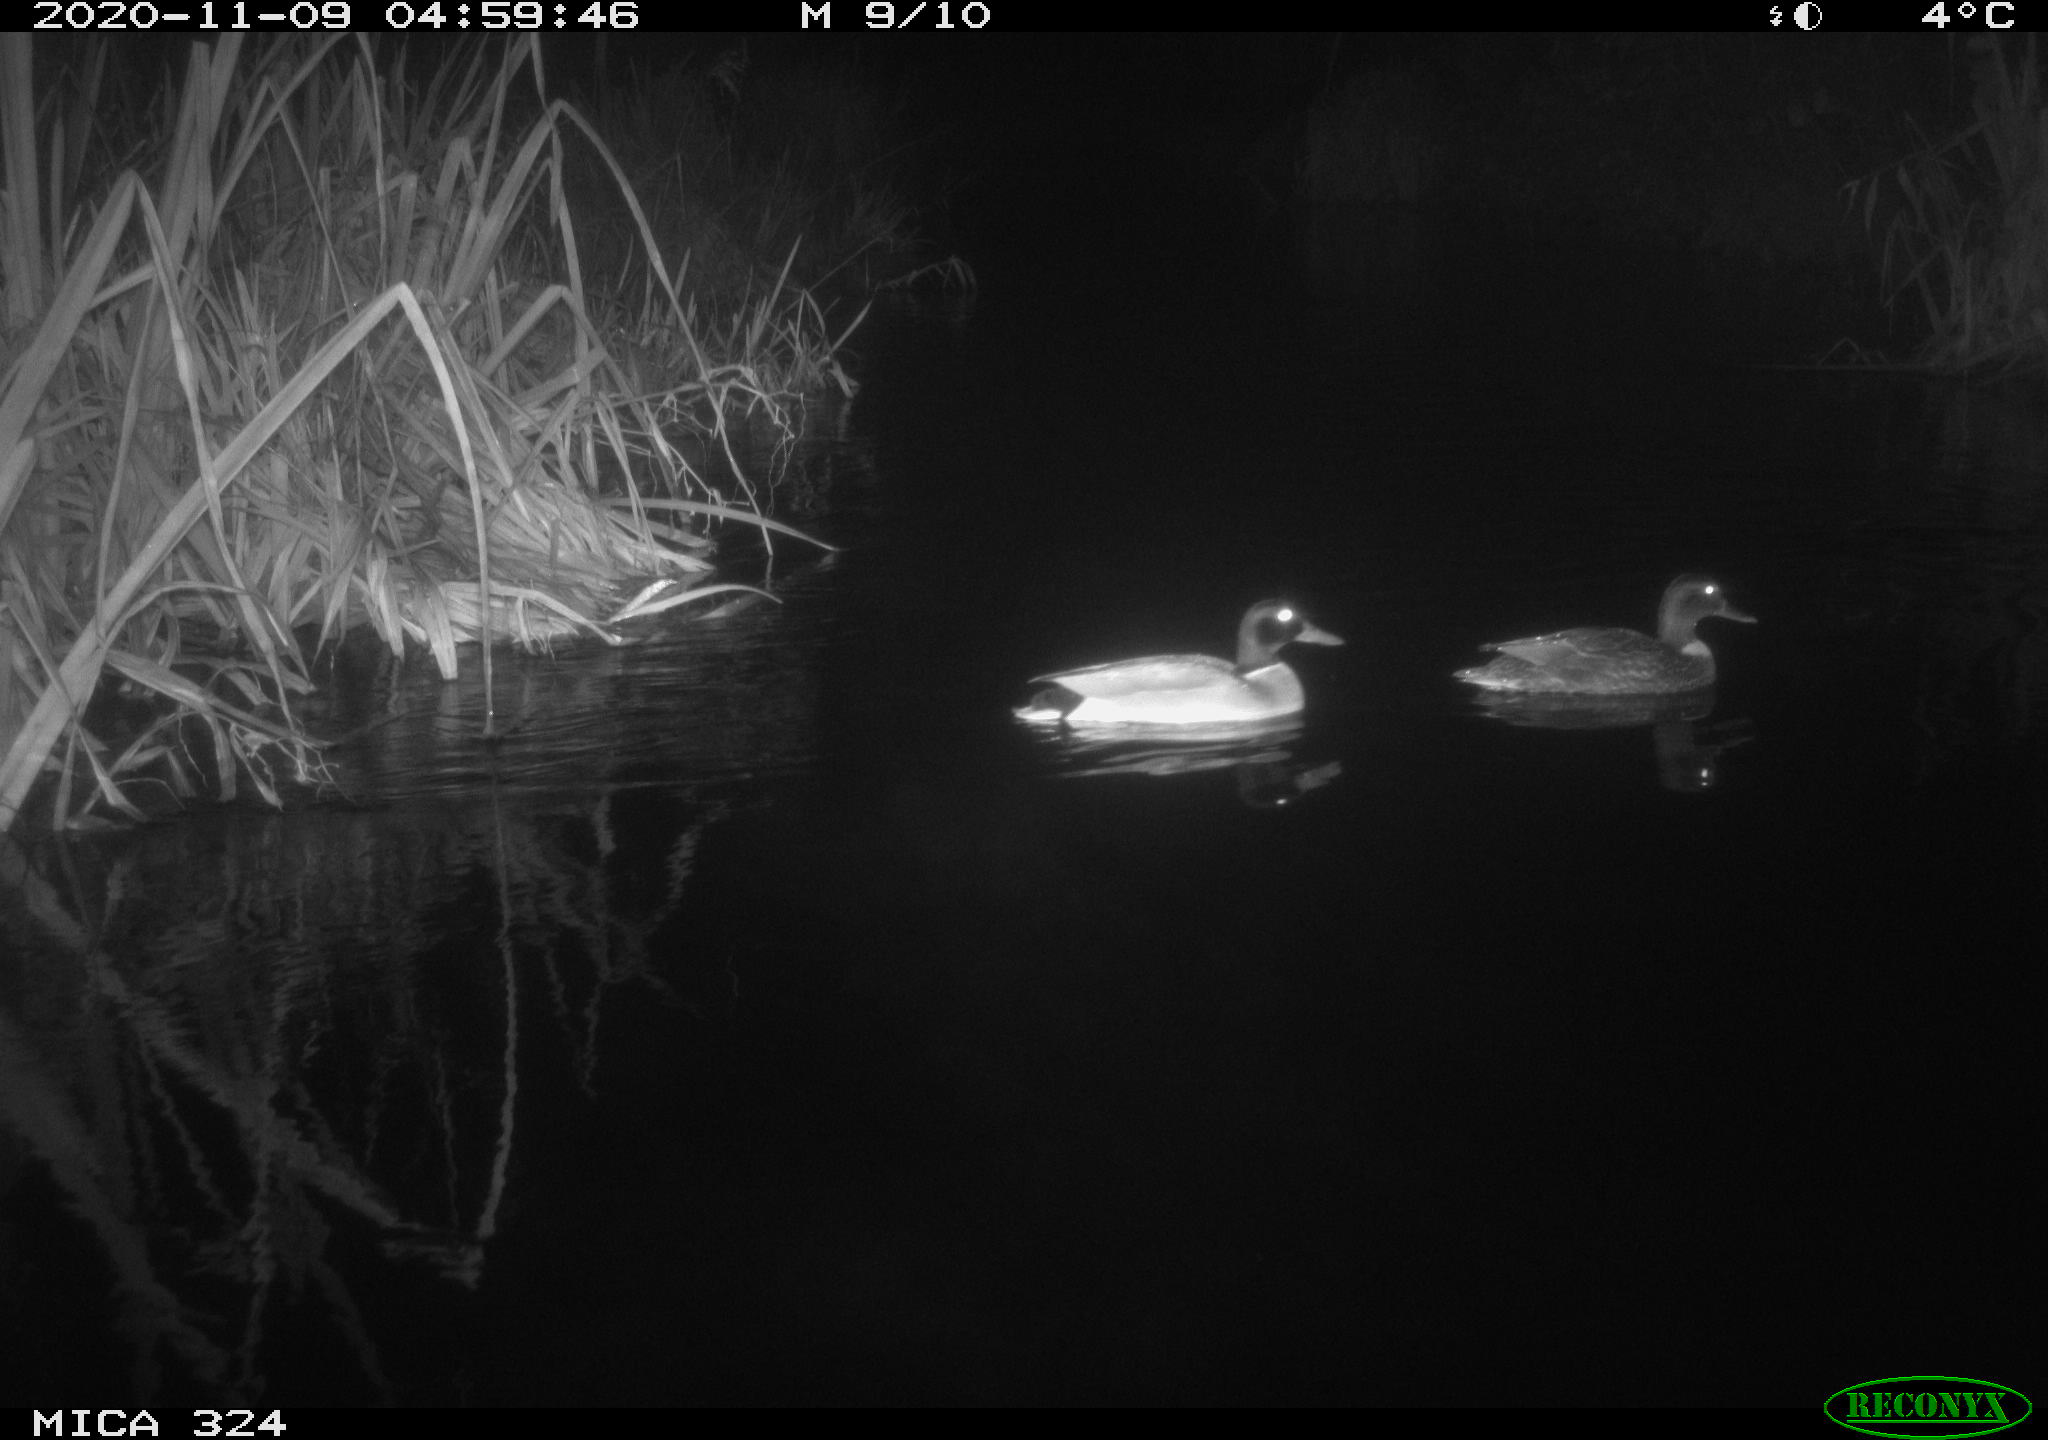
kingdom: Animalia
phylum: Chordata
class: Aves
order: Anseriformes
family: Anatidae
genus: Anas
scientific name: Anas platyrhynchos
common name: Mallard
